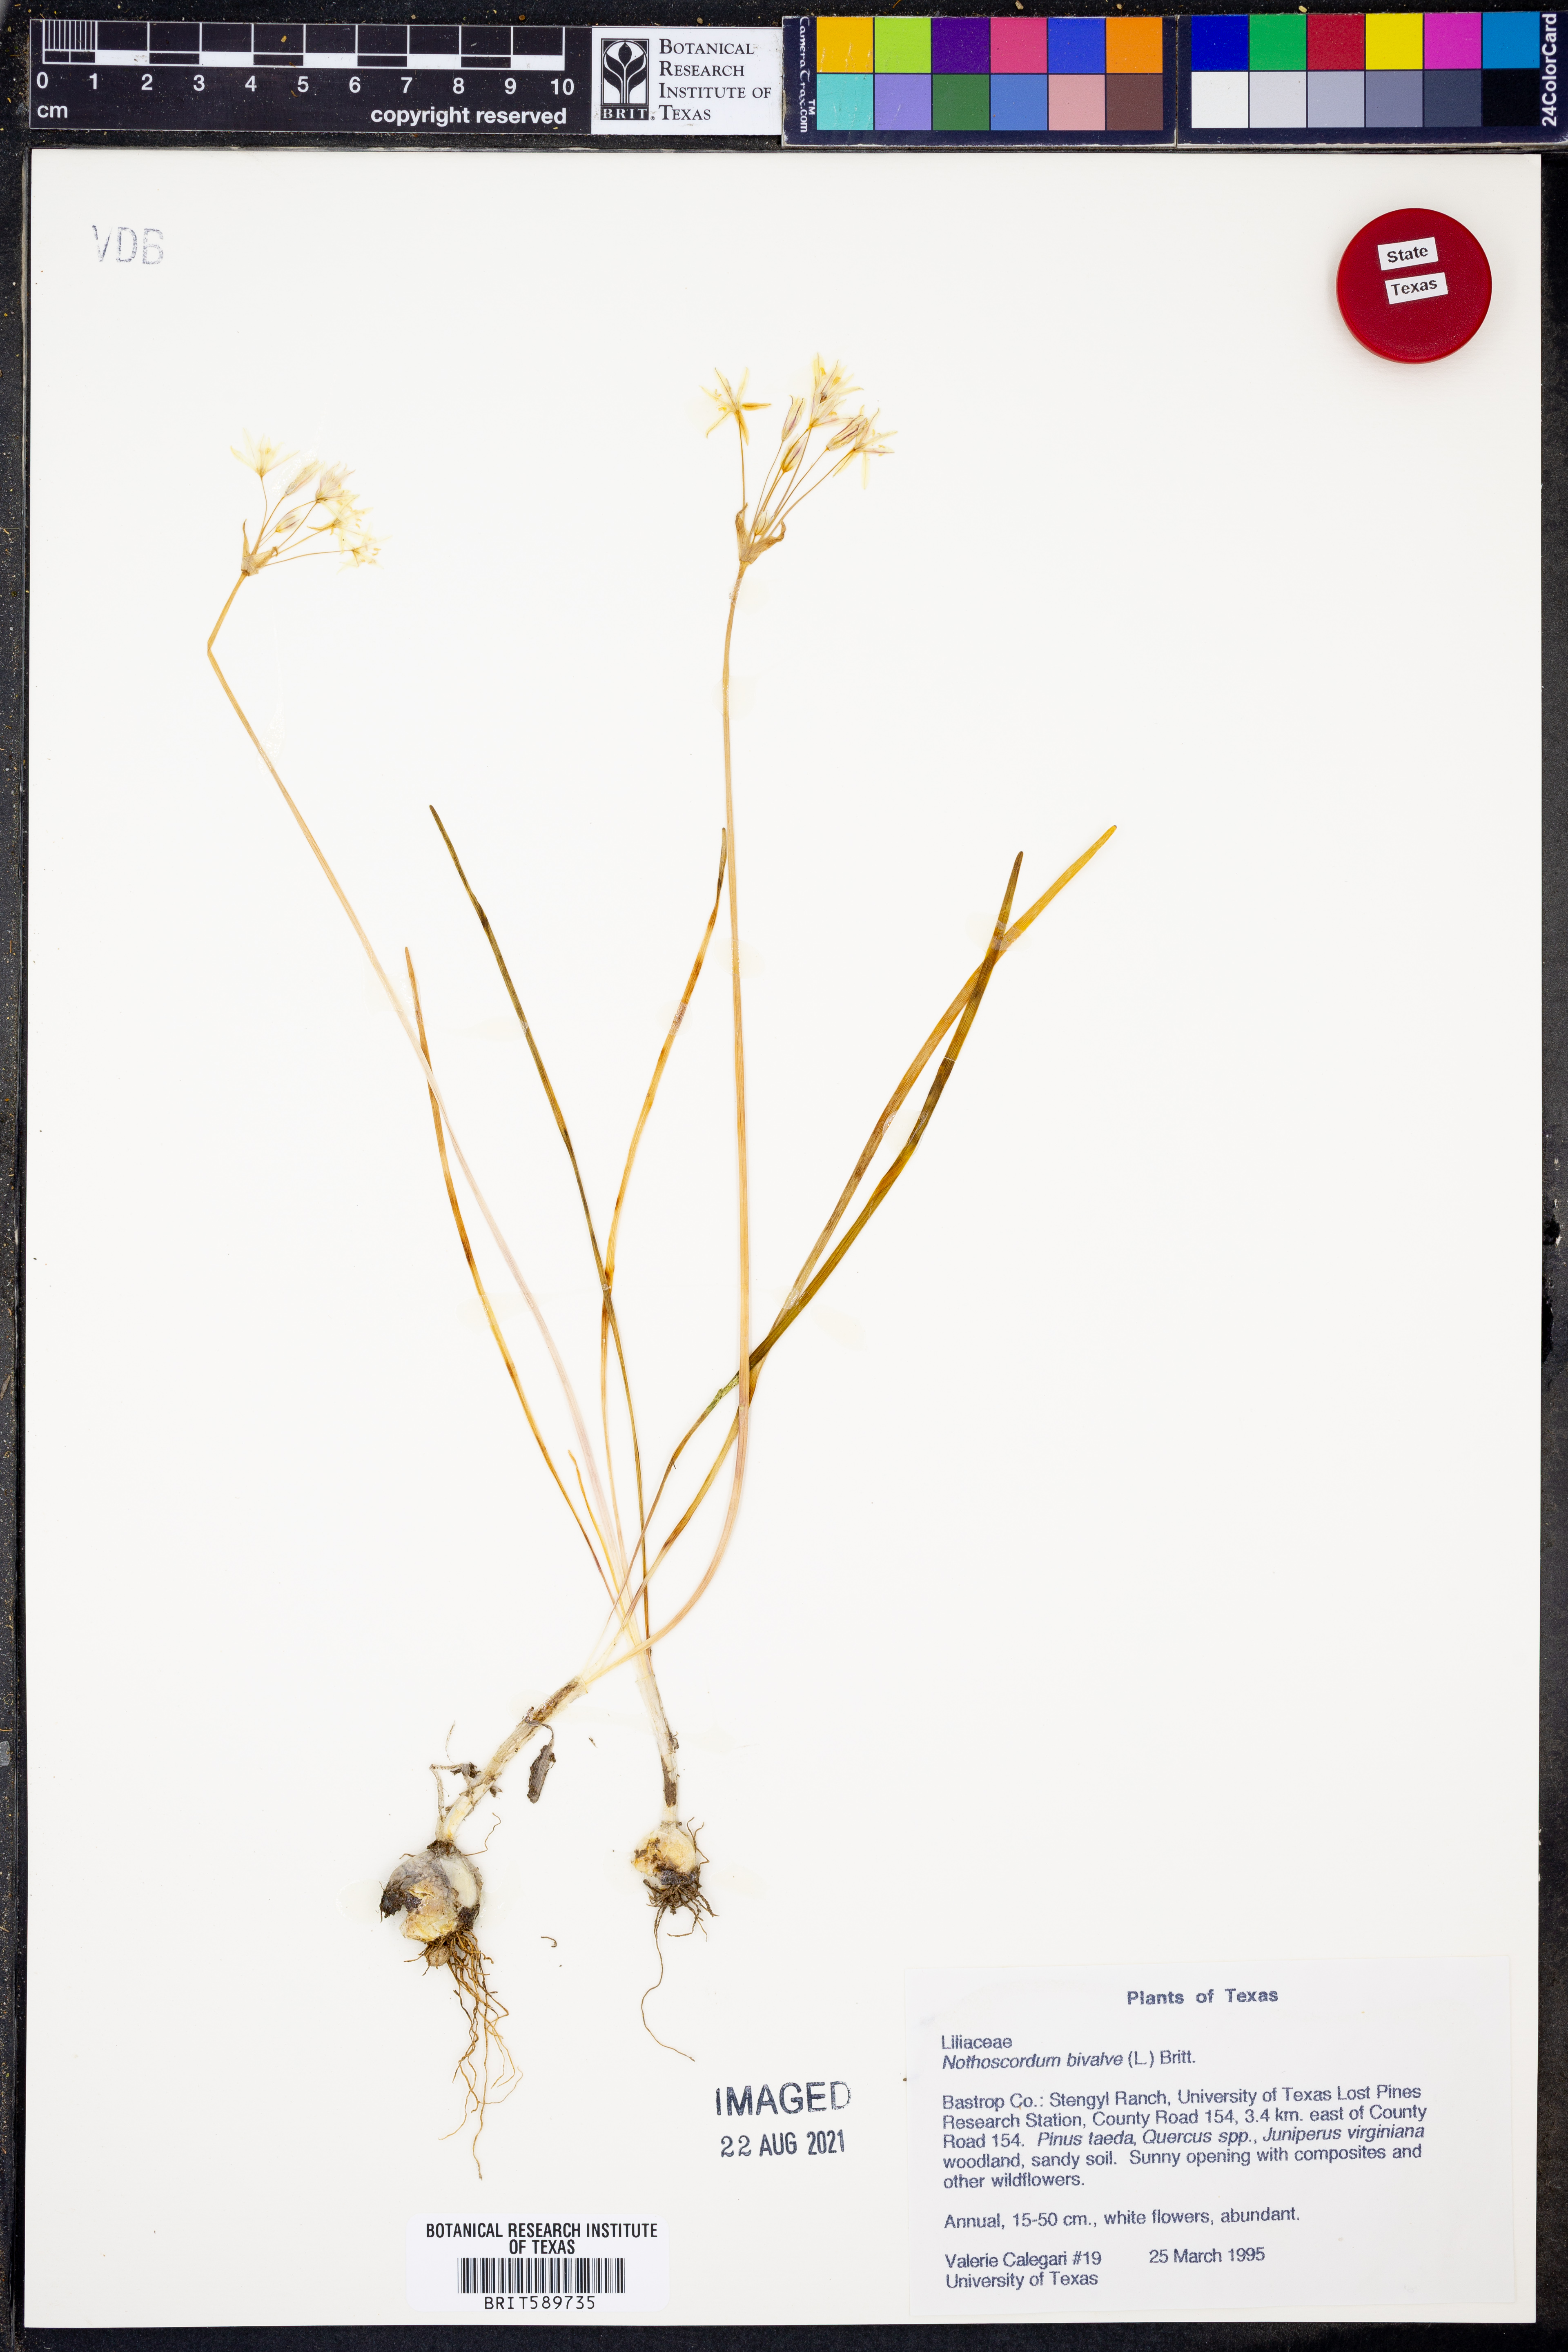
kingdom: Plantae
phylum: Tracheophyta
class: Liliopsida
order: Asparagales
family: Amaryllidaceae
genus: Nothoscordum
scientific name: Nothoscordum bivalve
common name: Crow-poison
